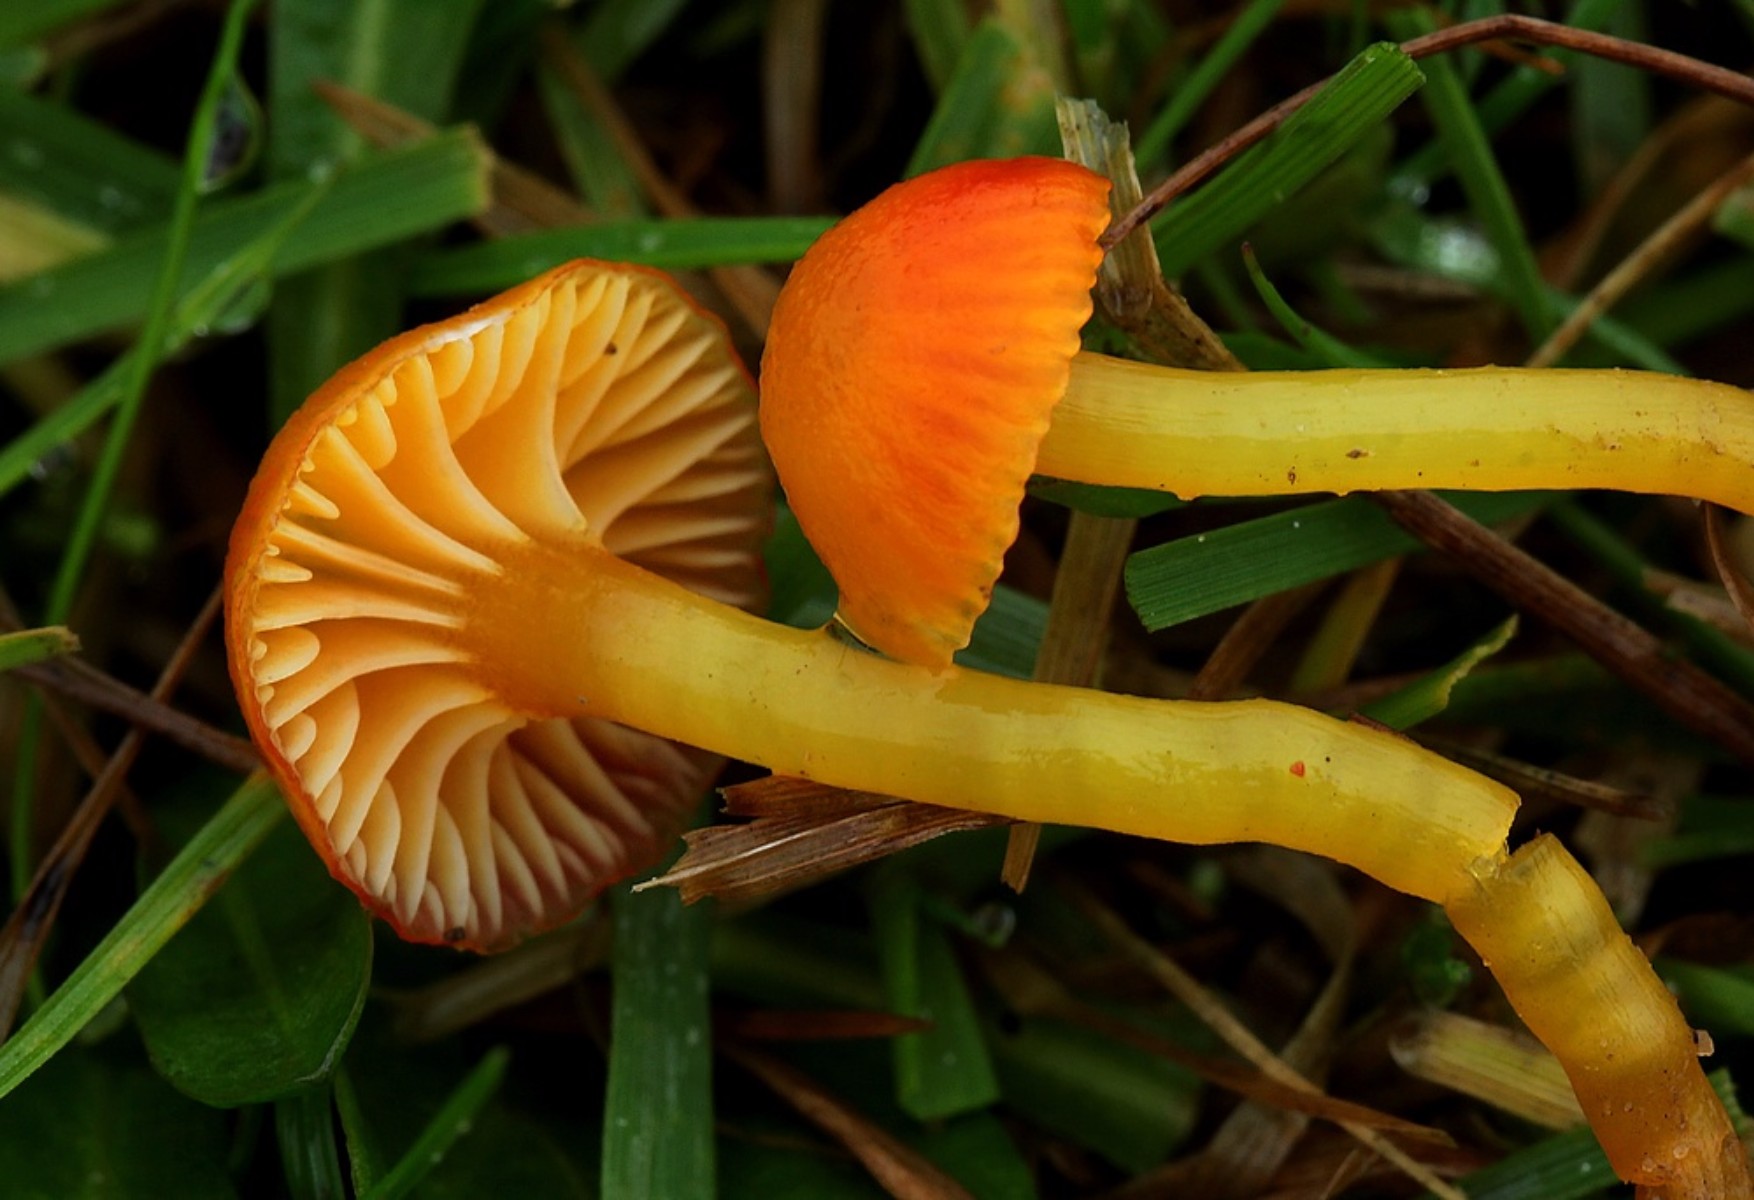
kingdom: Fungi
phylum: Basidiomycota
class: Agaricomycetes
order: Agaricales
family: Hygrophoraceae
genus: Hygrocybe
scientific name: Hygrocybe insipida
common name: liden vokshat
